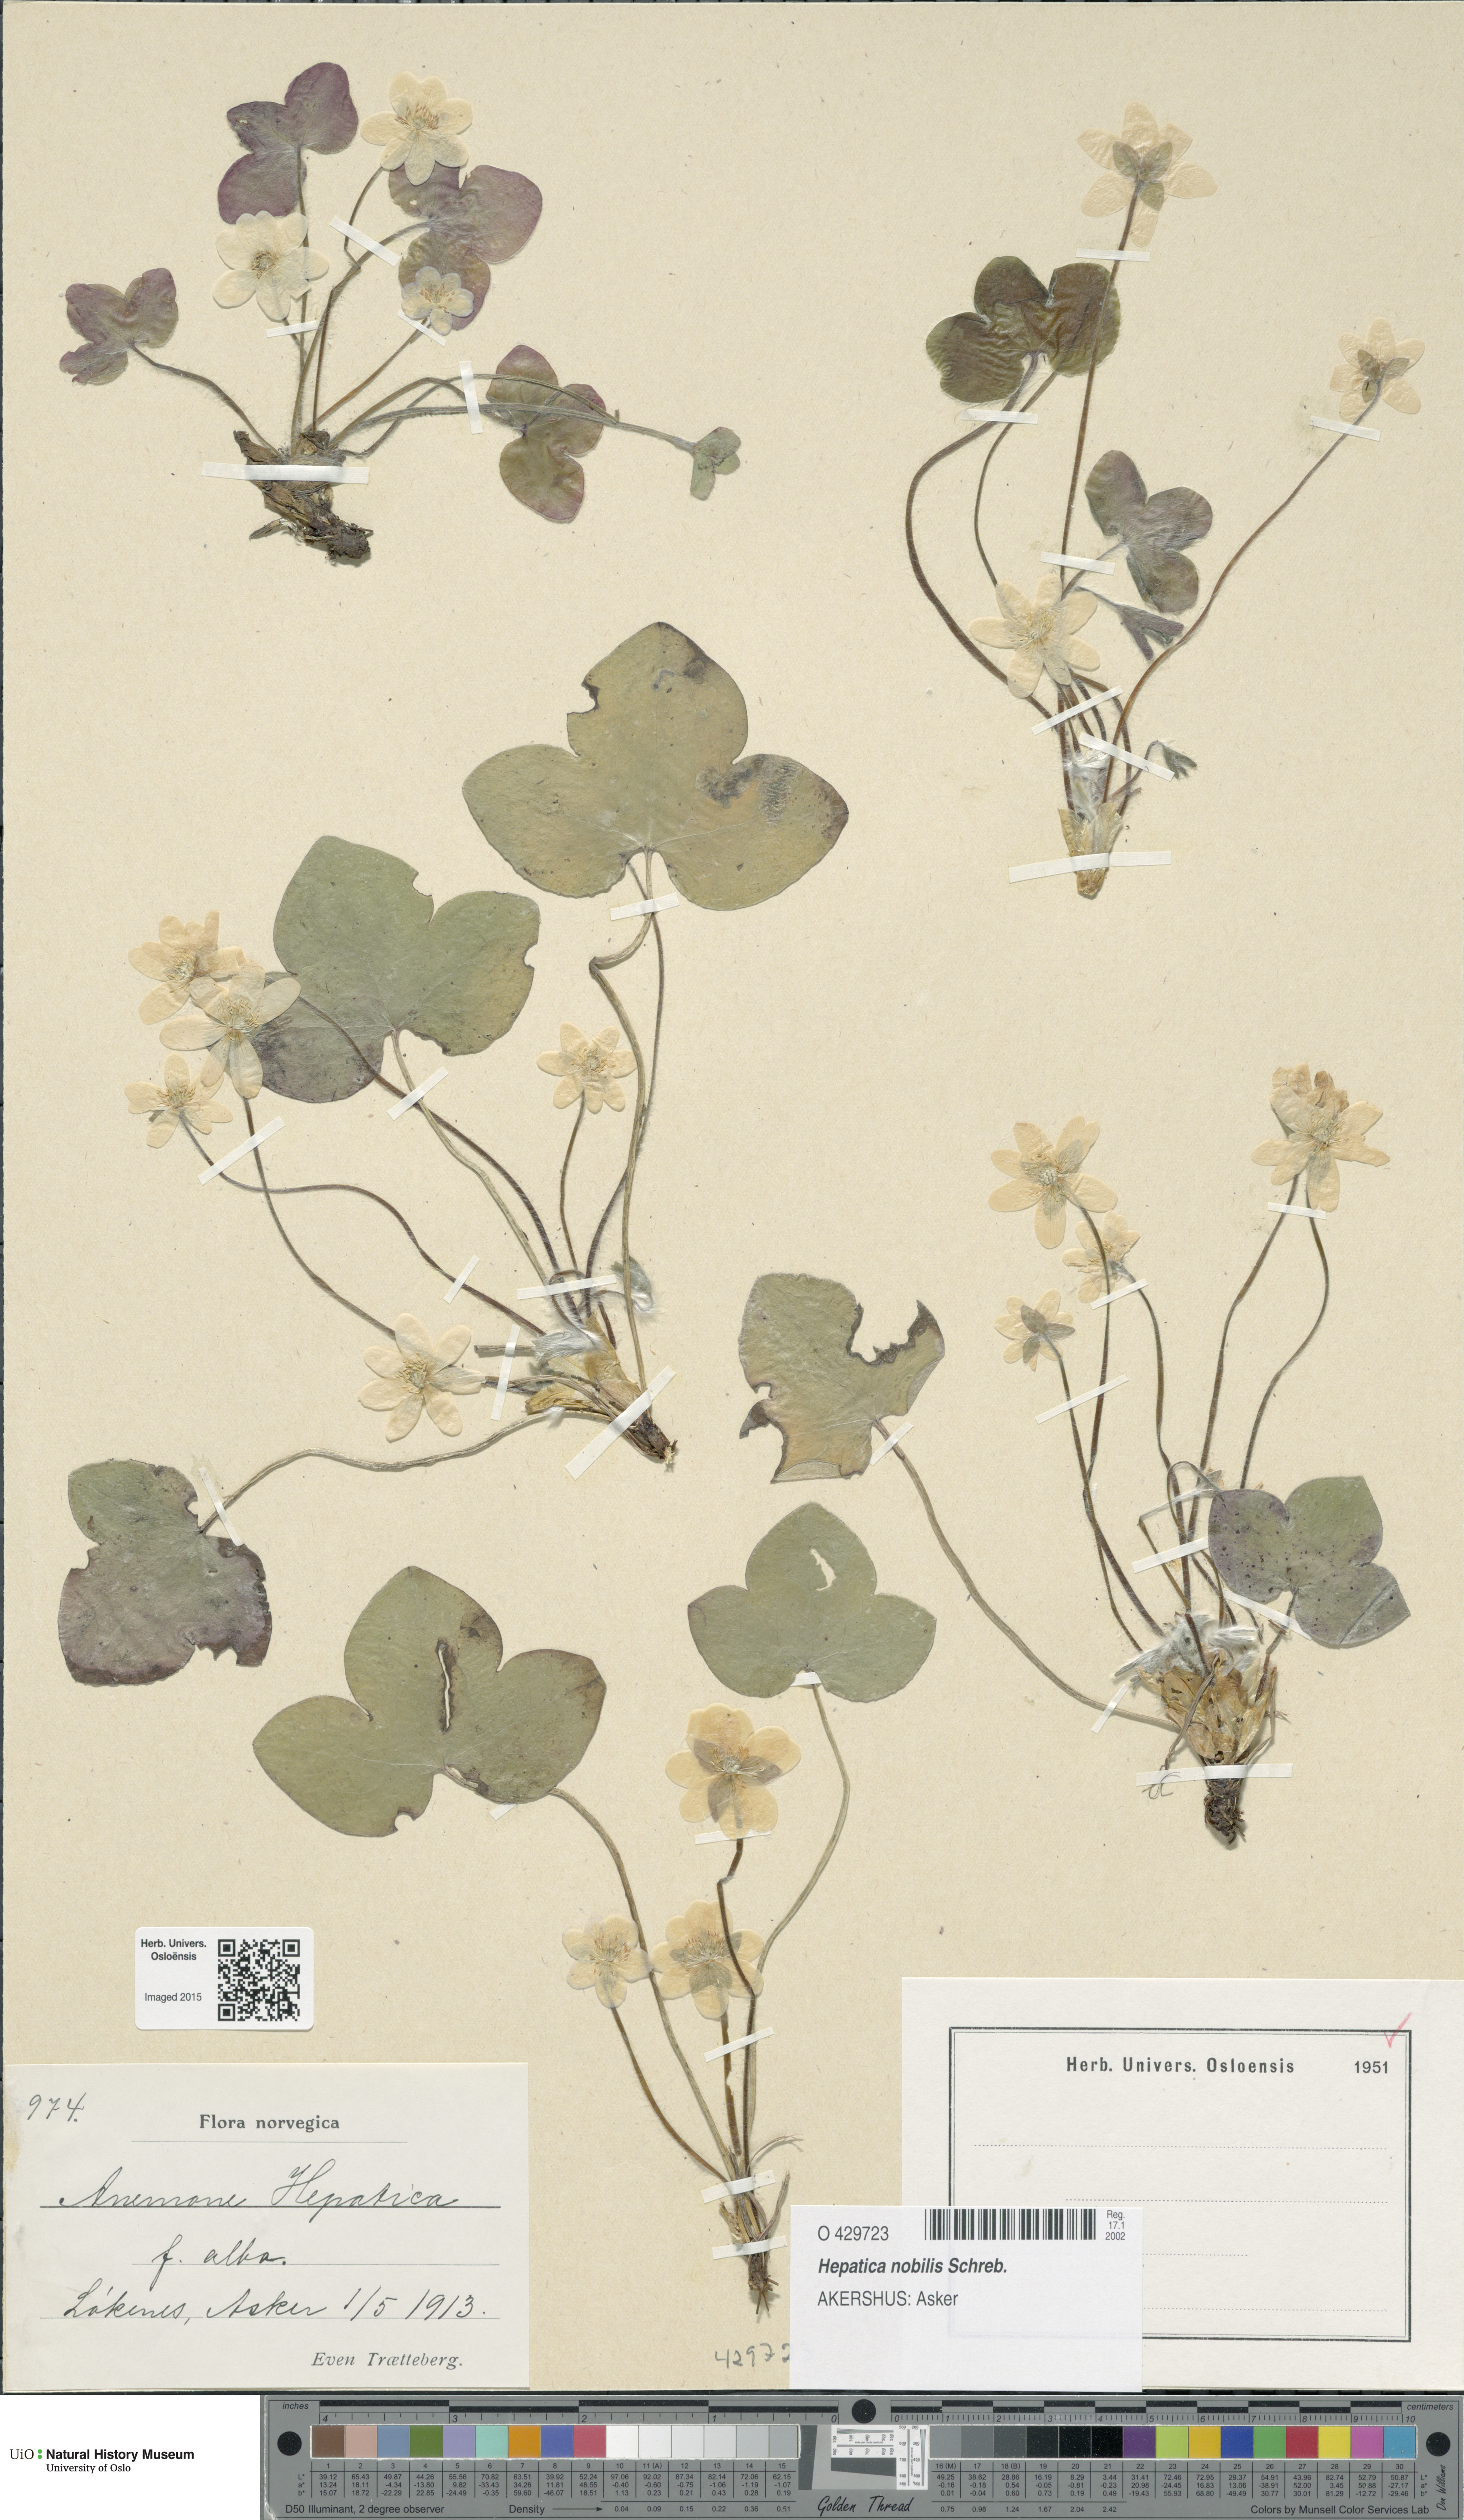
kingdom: Plantae
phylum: Tracheophyta
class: Magnoliopsida
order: Ranunculales
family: Ranunculaceae
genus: Hepatica
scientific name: Hepatica nobilis
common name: Liverleaf
